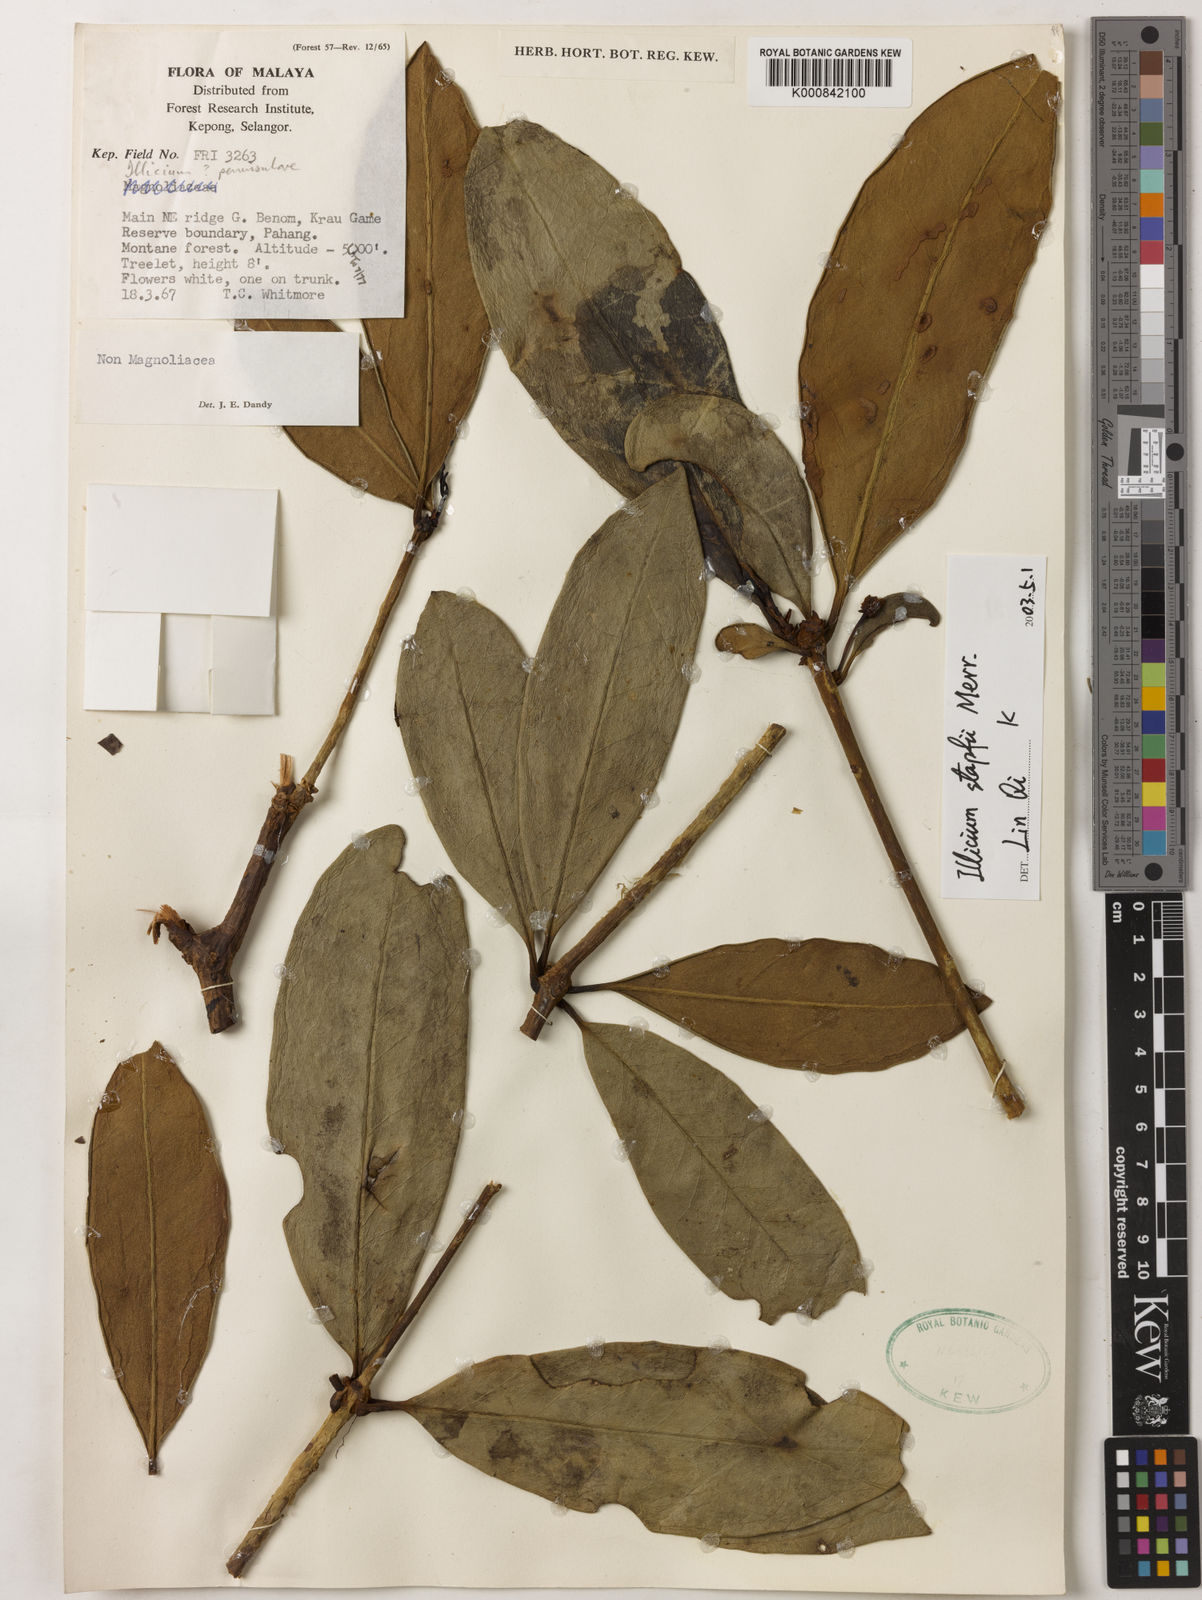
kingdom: Plantae
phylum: Tracheophyta
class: Magnoliopsida
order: Austrobaileyales
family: Schisandraceae
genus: Illicium
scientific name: Illicium stapfii
